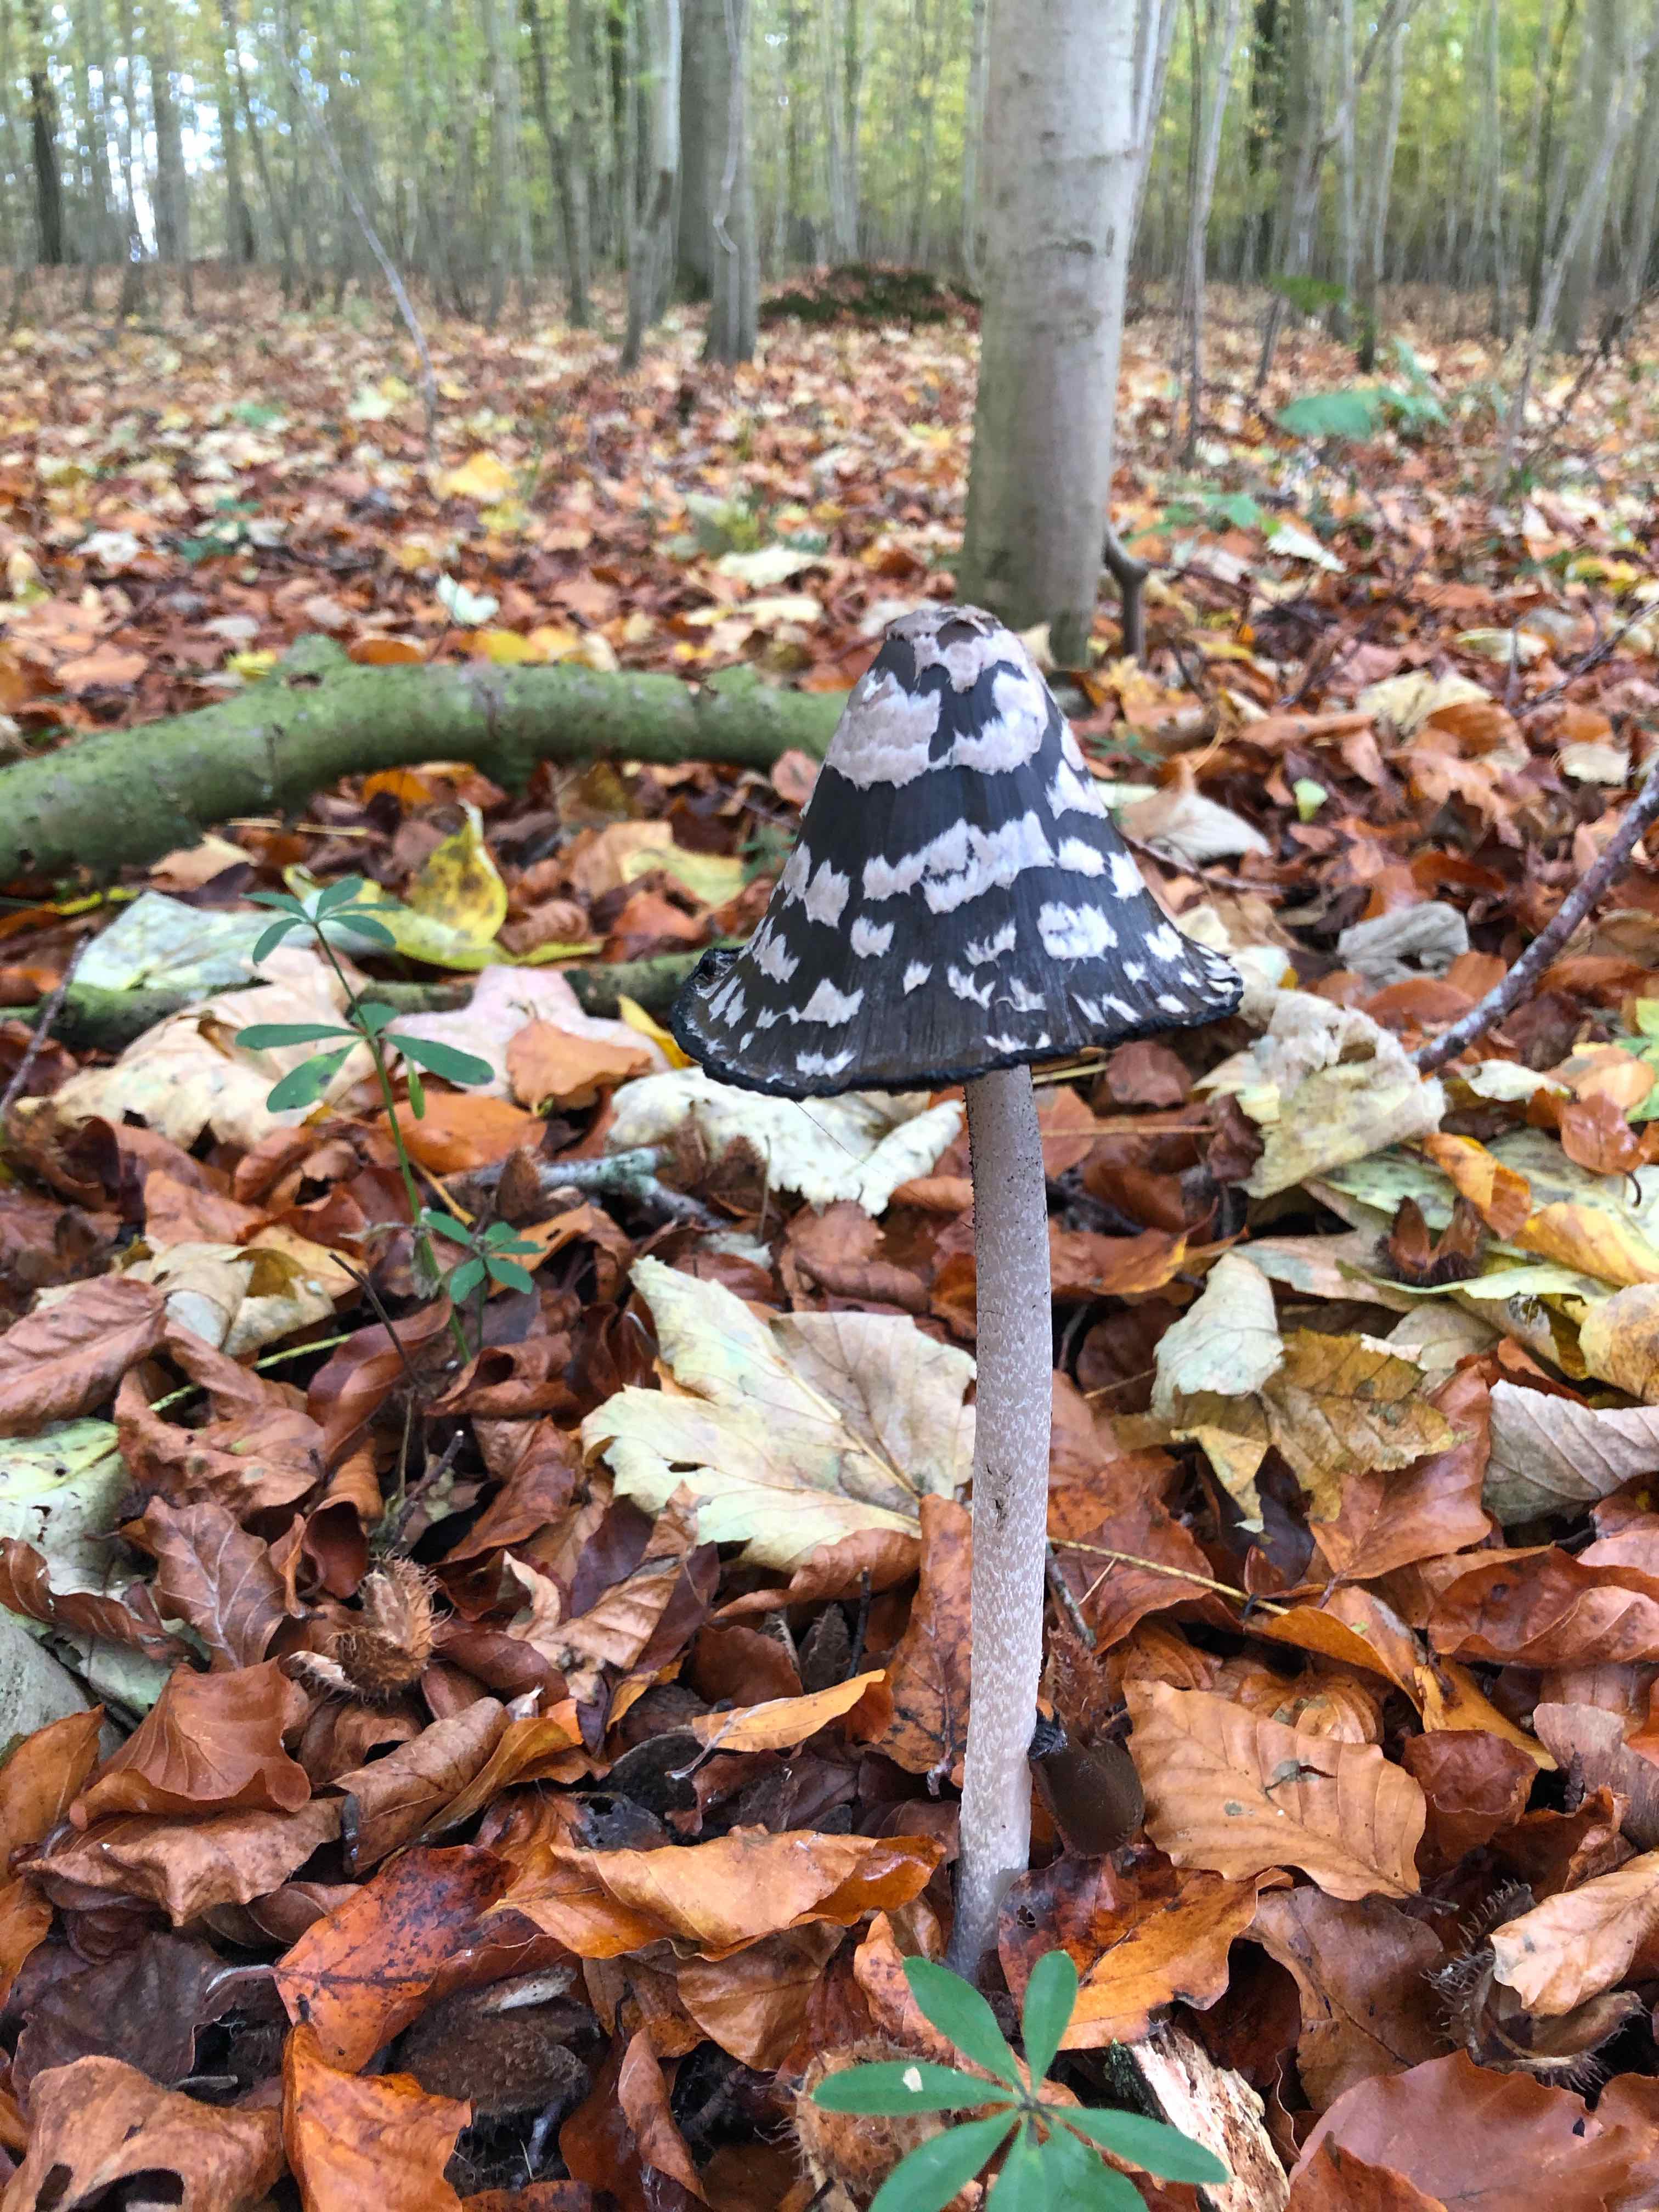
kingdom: Fungi
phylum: Basidiomycota
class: Agaricomycetes
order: Agaricales
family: Psathyrellaceae
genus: Coprinopsis
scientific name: Coprinopsis picacea
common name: skade-blækhat
